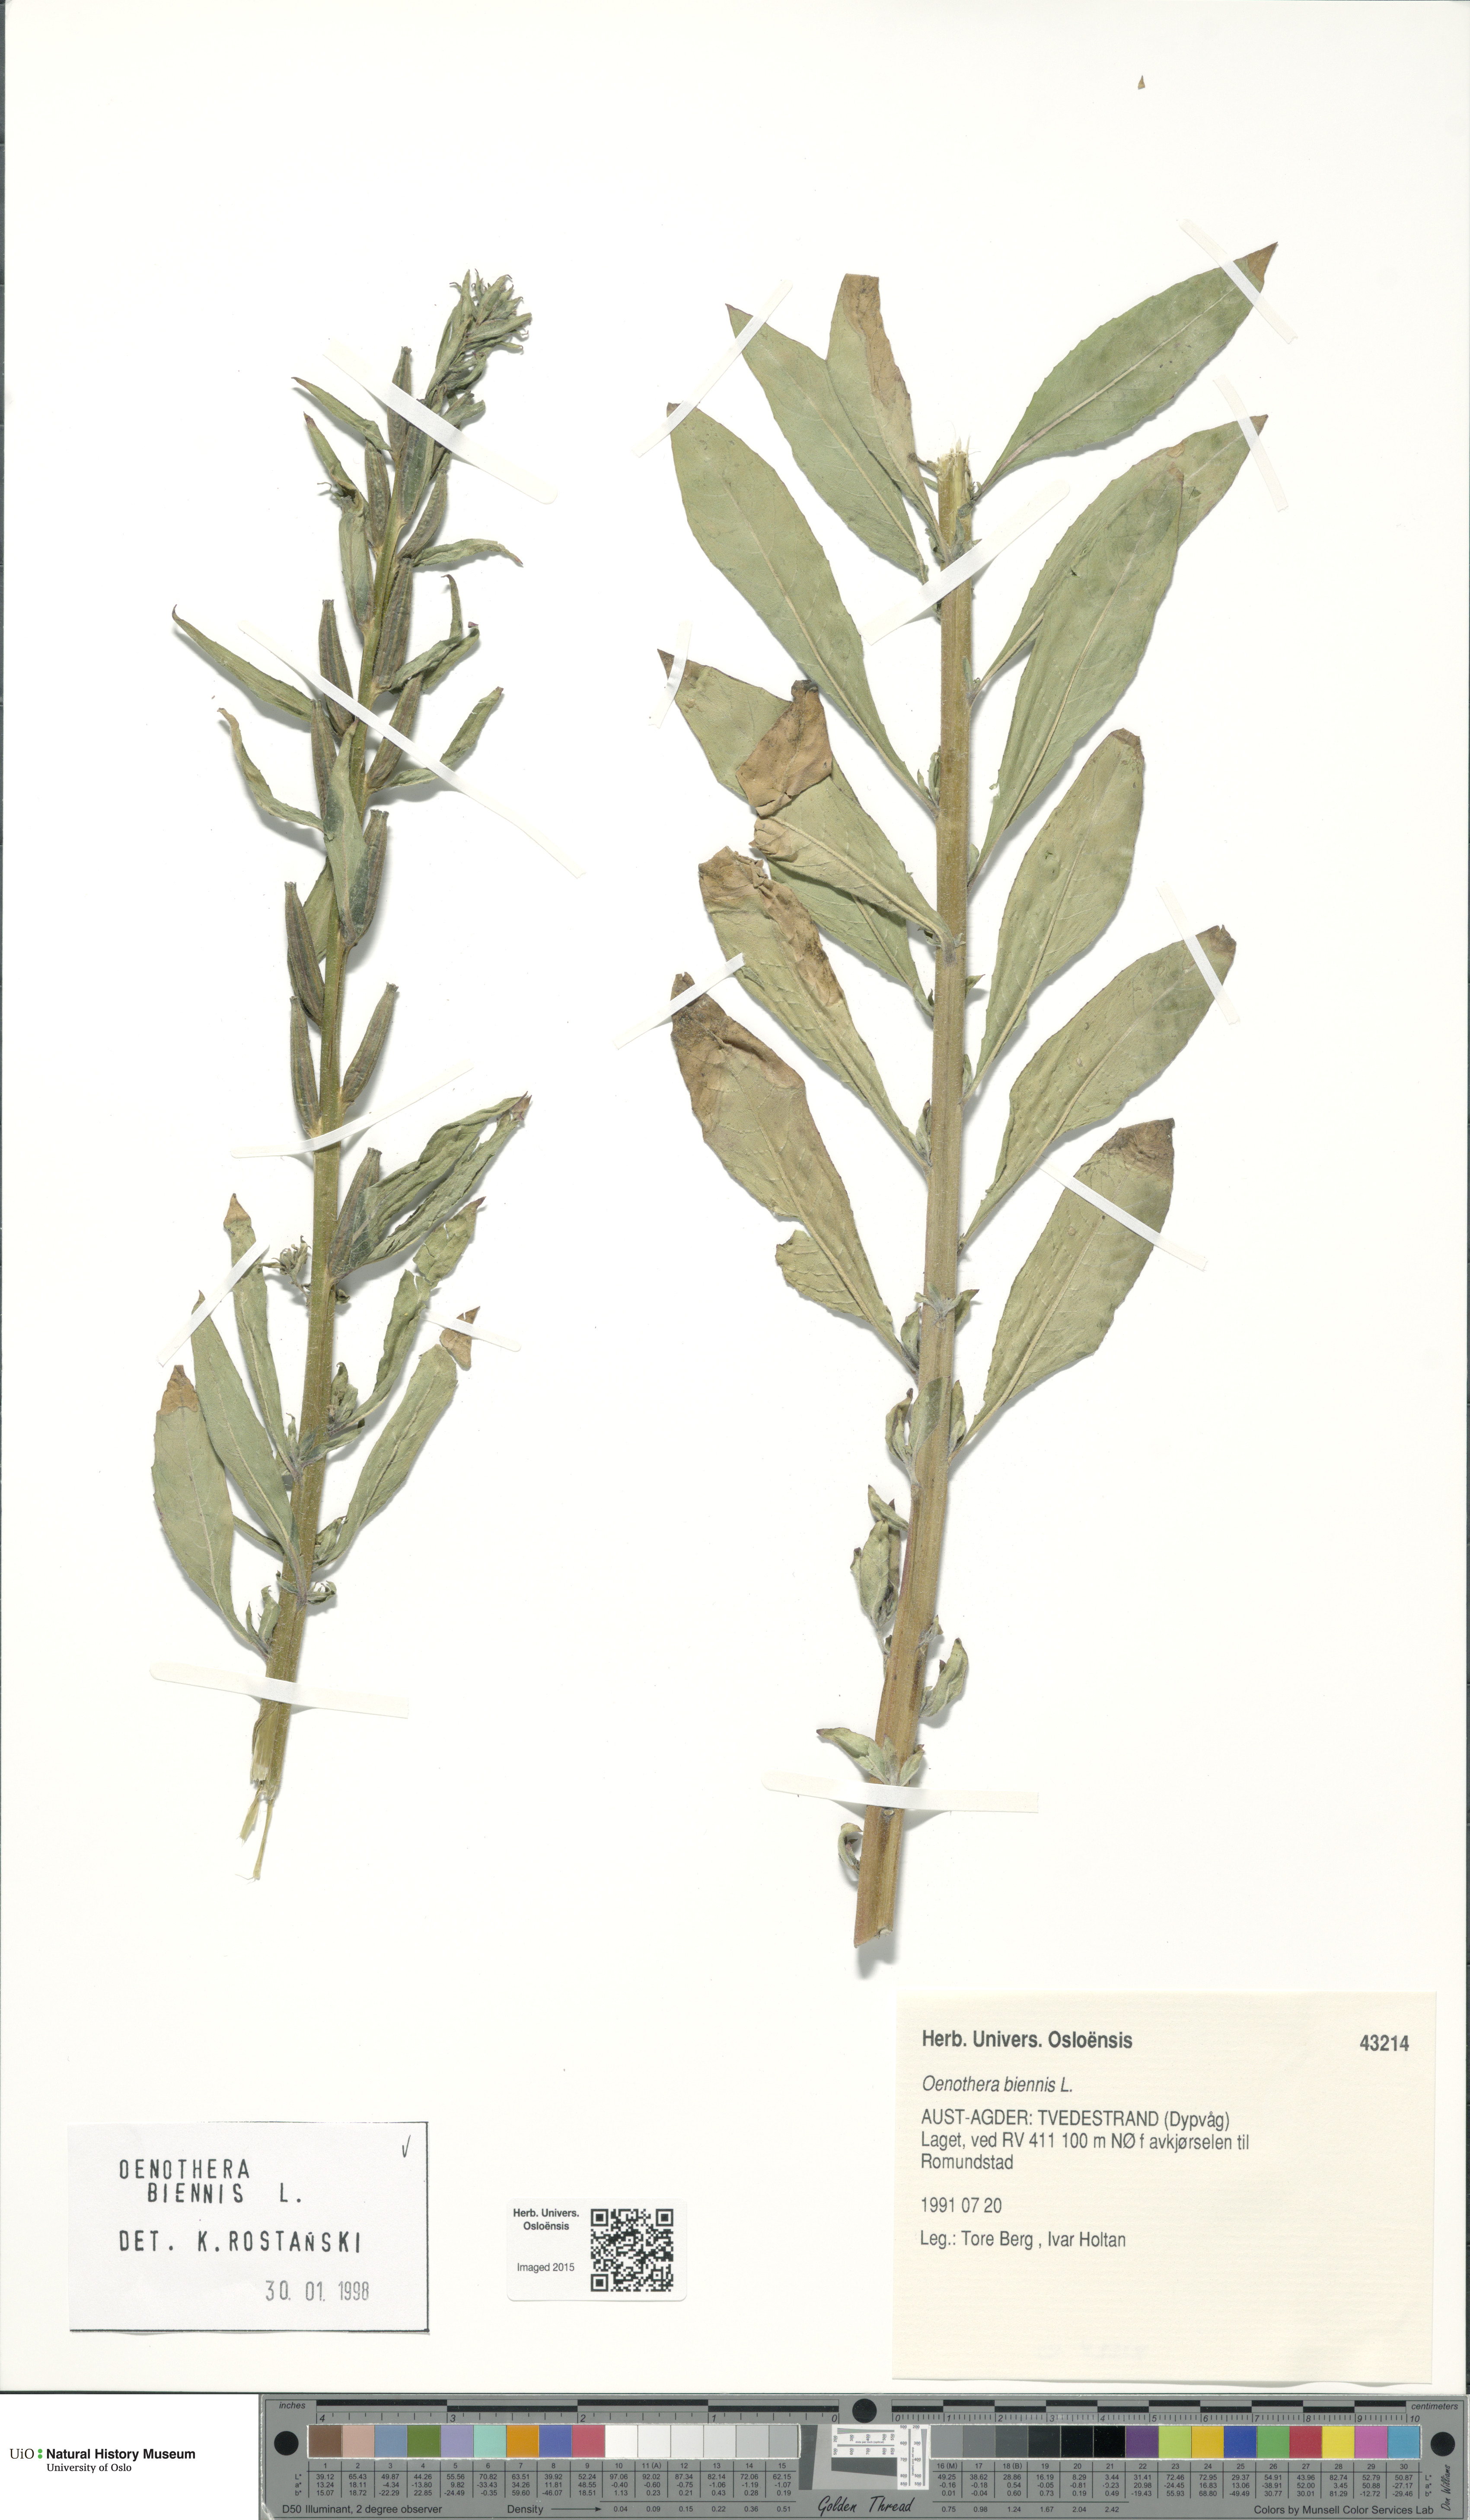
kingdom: Plantae
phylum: Tracheophyta
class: Magnoliopsida
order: Myrtales
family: Onagraceae
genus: Oenothera
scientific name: Oenothera biennis
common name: Common evening-primrose
